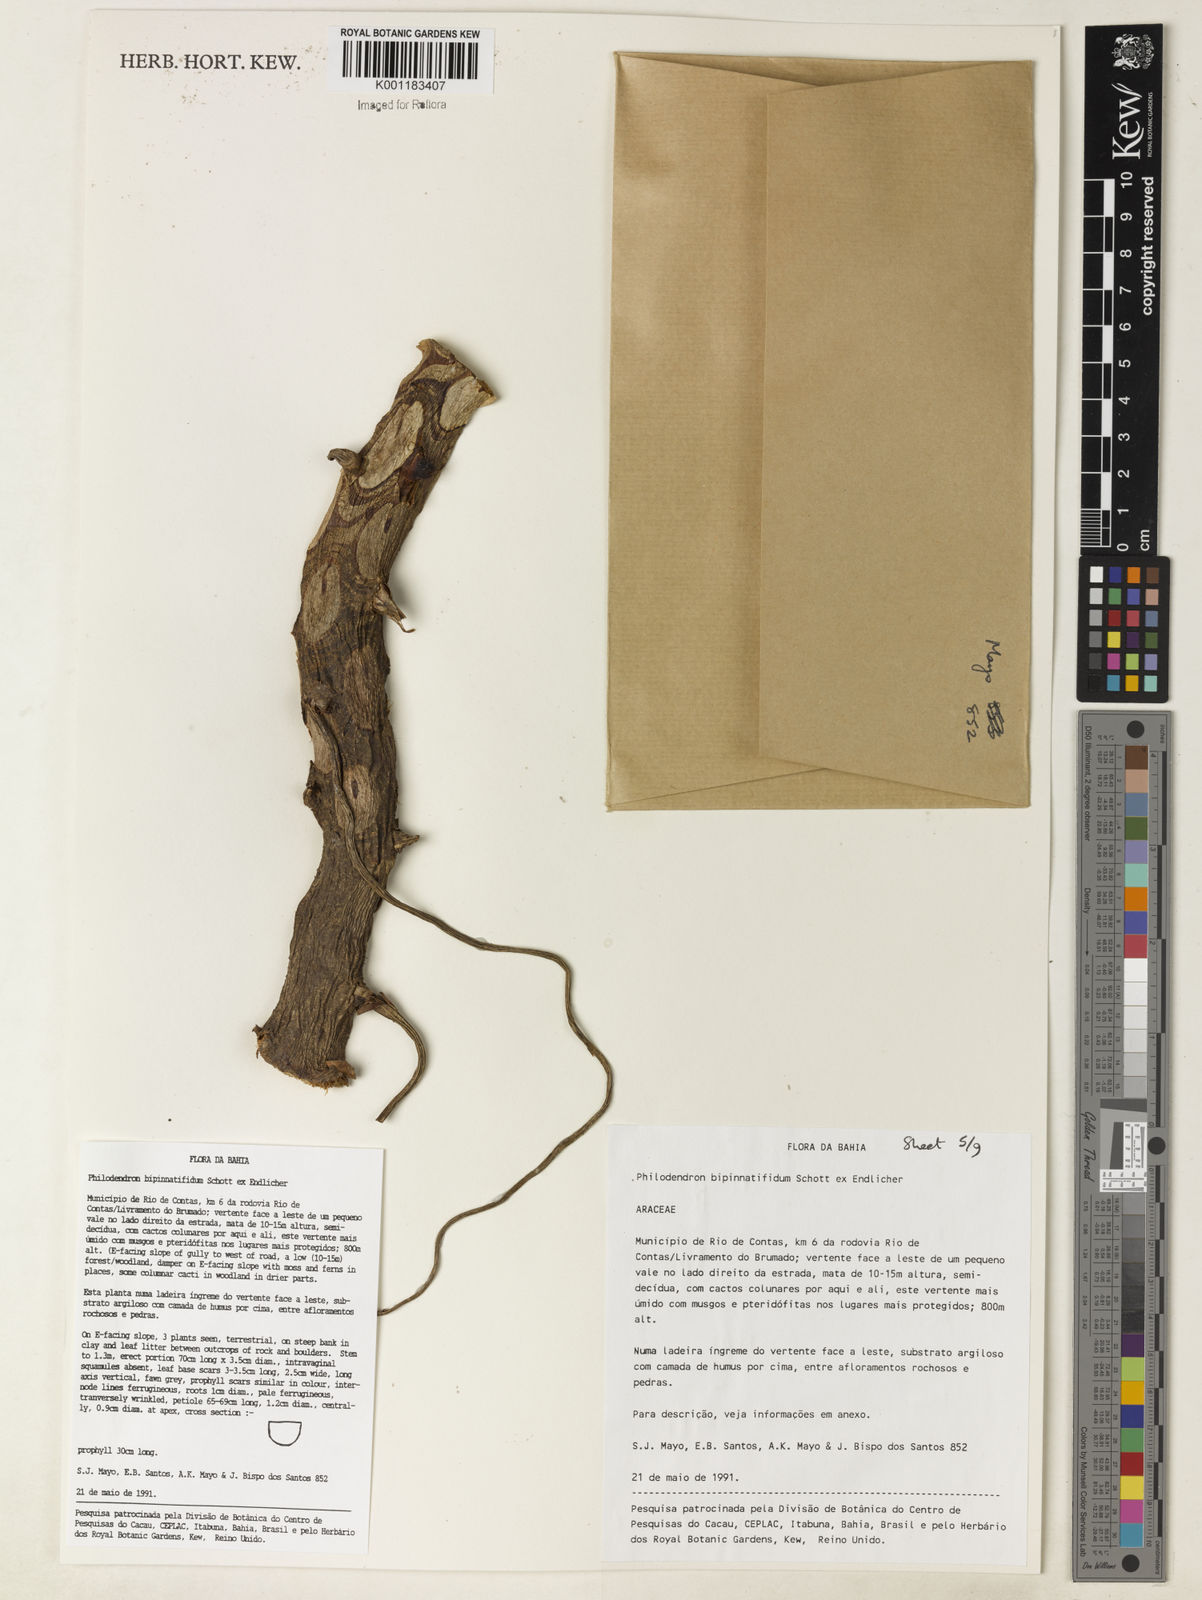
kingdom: Plantae
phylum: Tracheophyta
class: Liliopsida
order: Alismatales
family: Araceae
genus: Philodendron
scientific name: Philodendron
